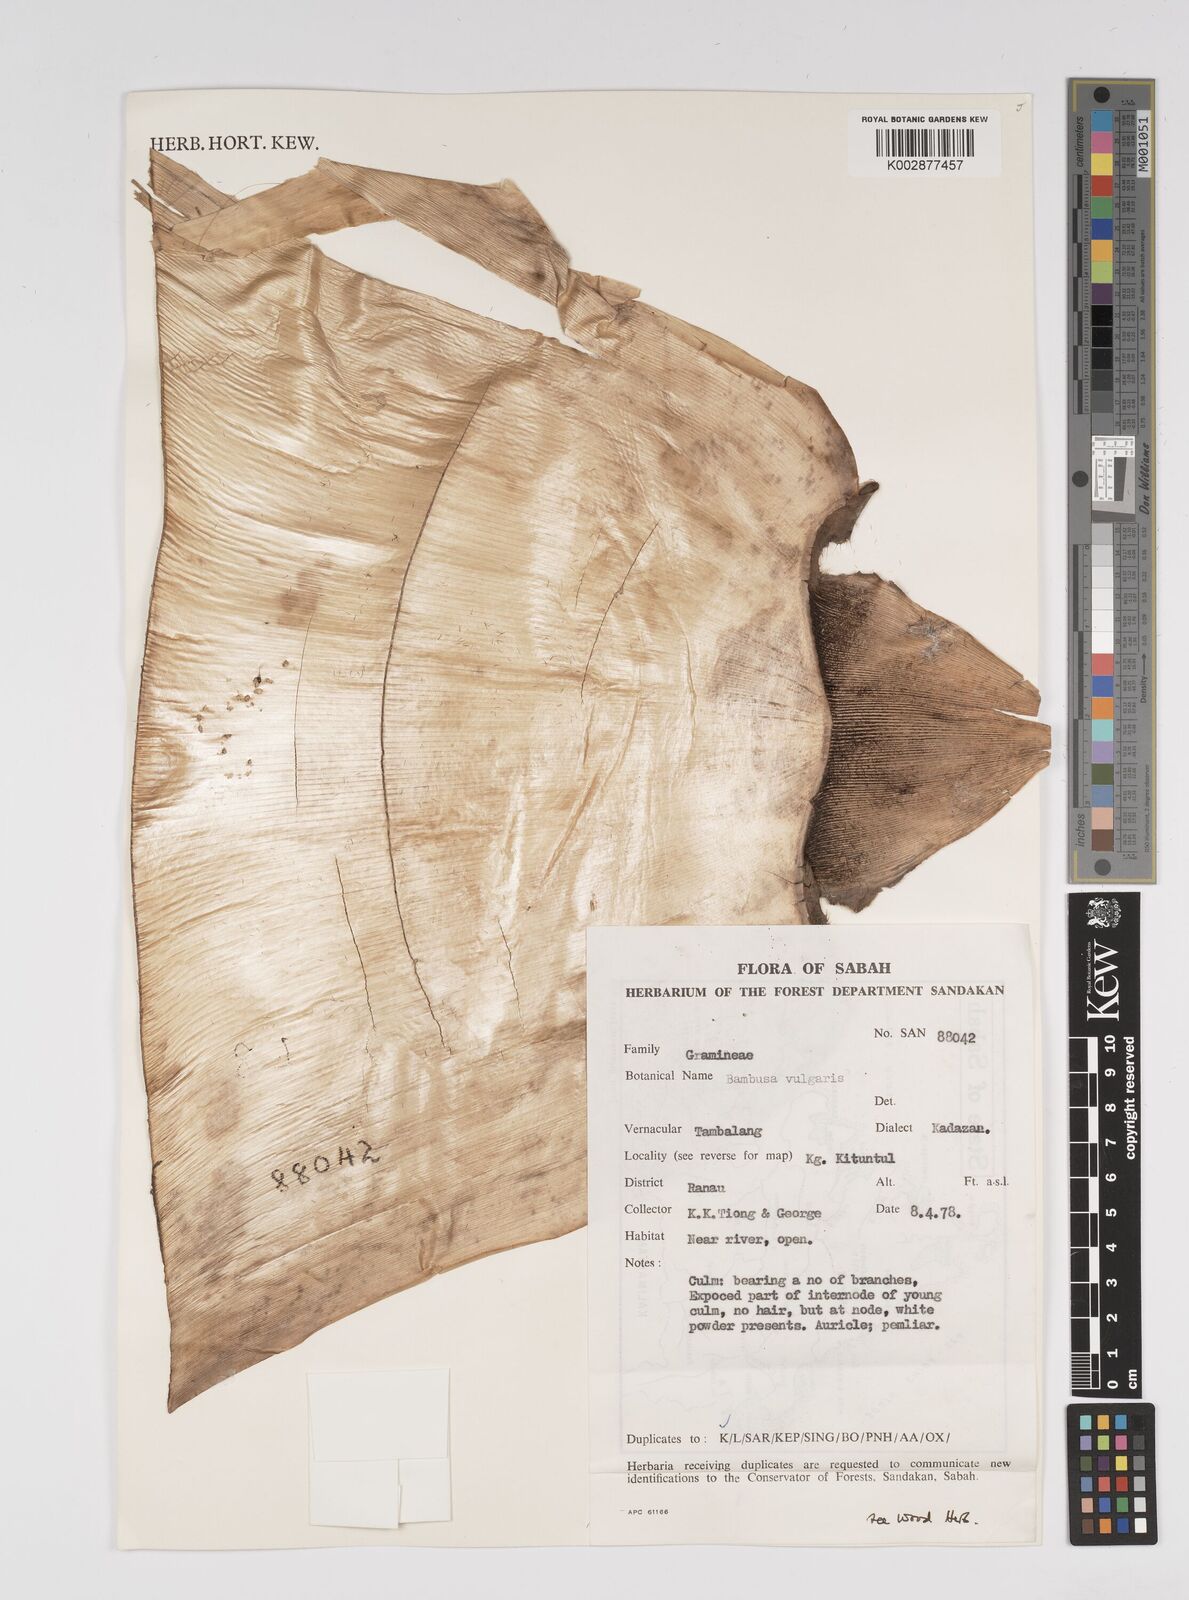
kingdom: Plantae
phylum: Tracheophyta
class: Liliopsida
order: Poales
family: Poaceae
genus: Bambusa
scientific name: Bambusa vulgaris
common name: Common bamboo
